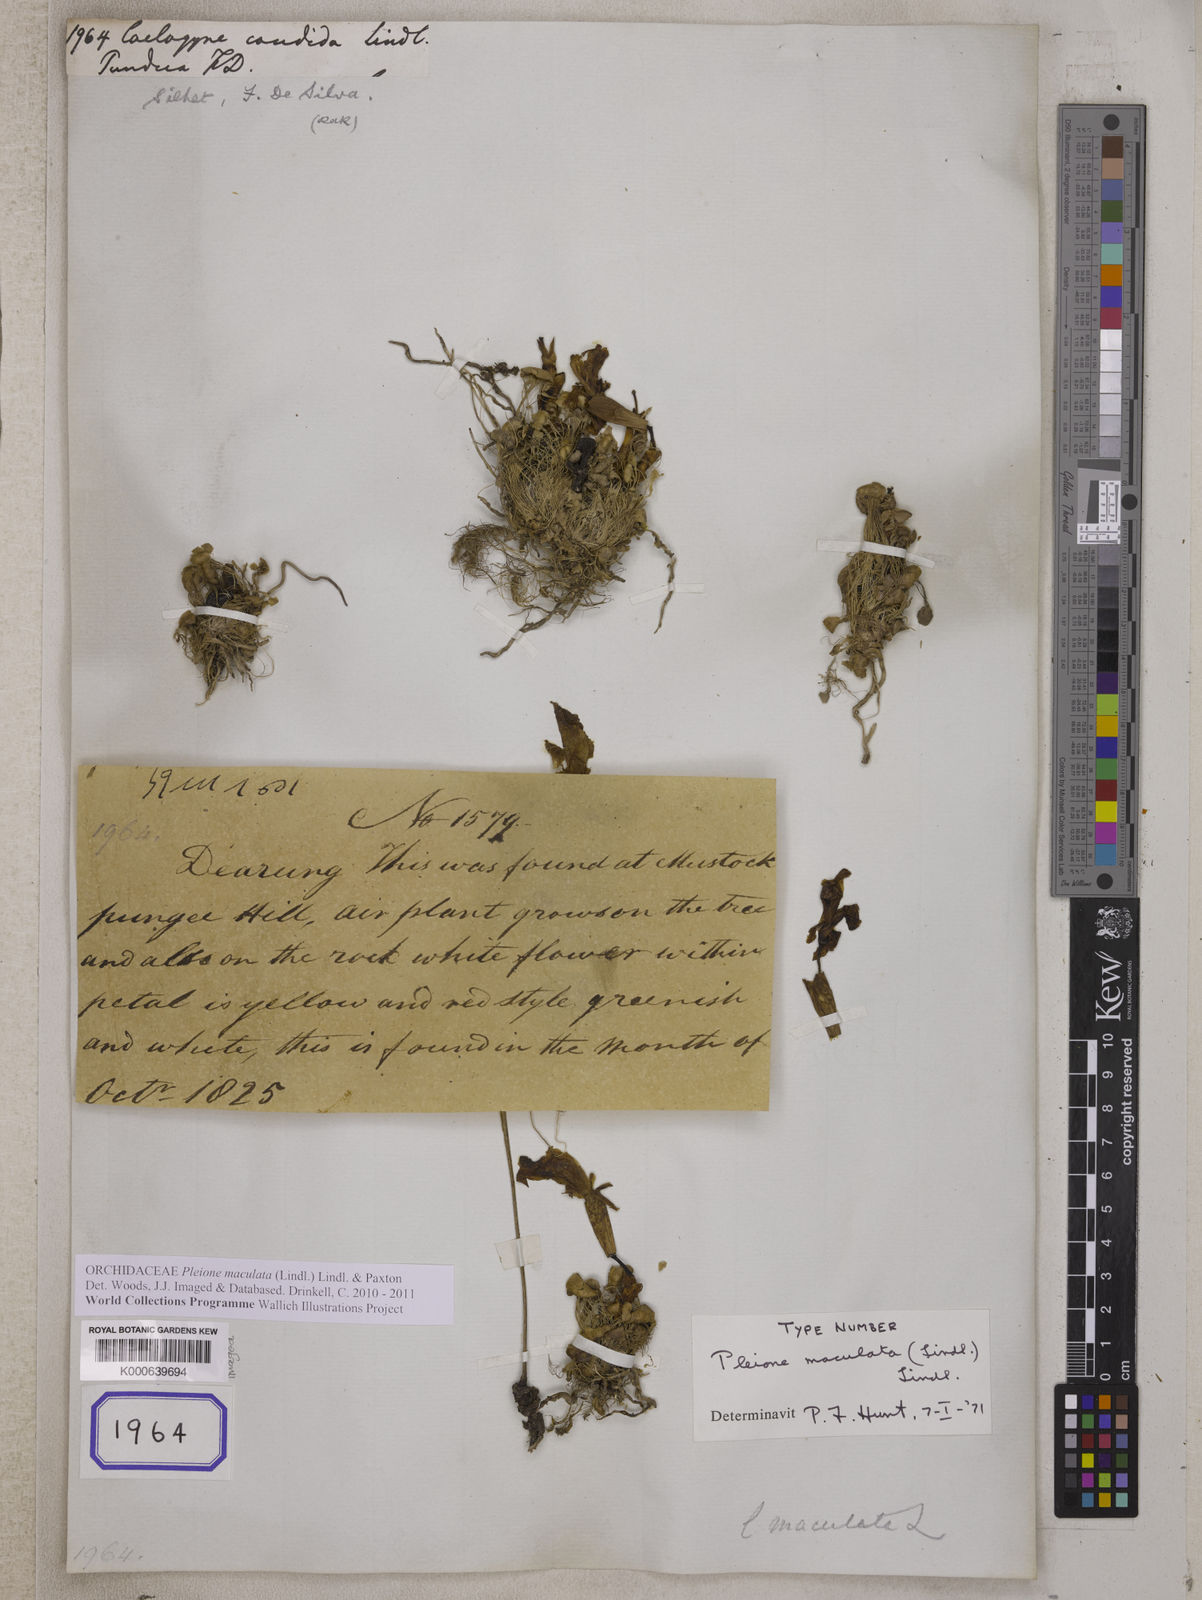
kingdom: Plantae
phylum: Tracheophyta
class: Liliopsida
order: Asparagales
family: Orchidaceae
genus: Coelogyne
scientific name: Coelogyne
